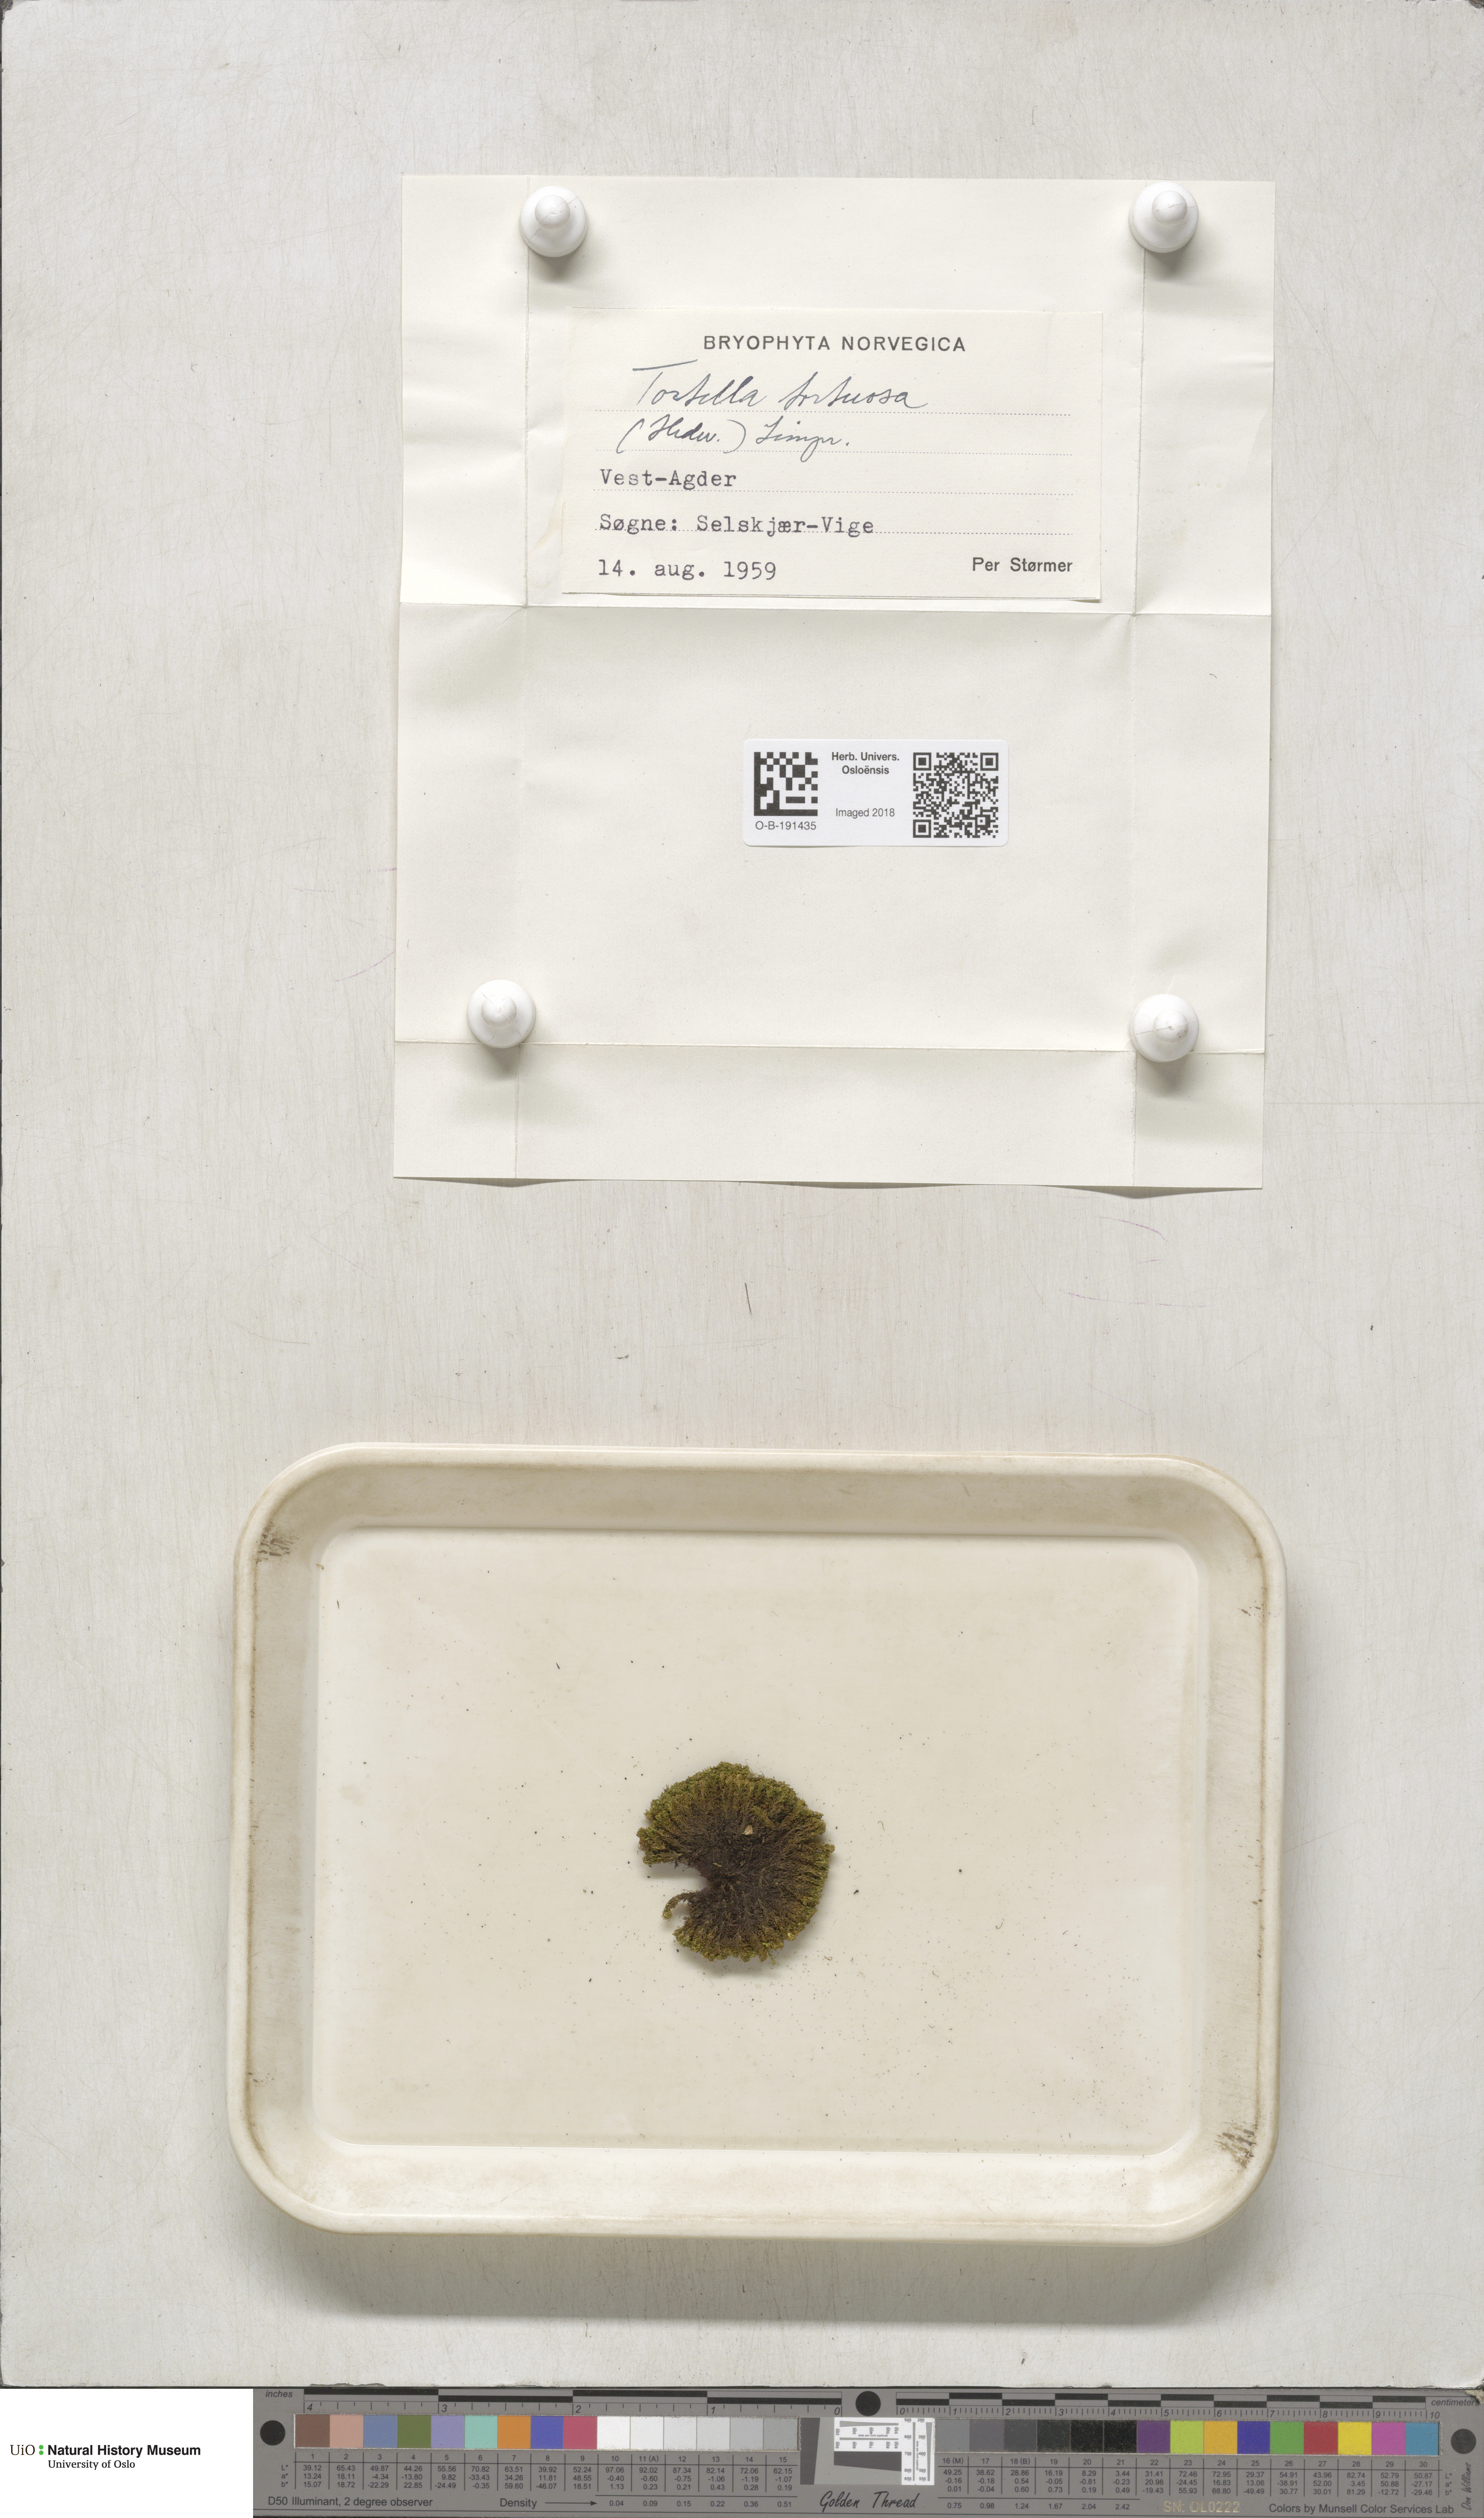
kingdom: Plantae
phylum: Bryophyta
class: Bryopsida
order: Pottiales
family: Pottiaceae
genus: Tortella
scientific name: Tortella tortuosa
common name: Frizzled crisp moss
